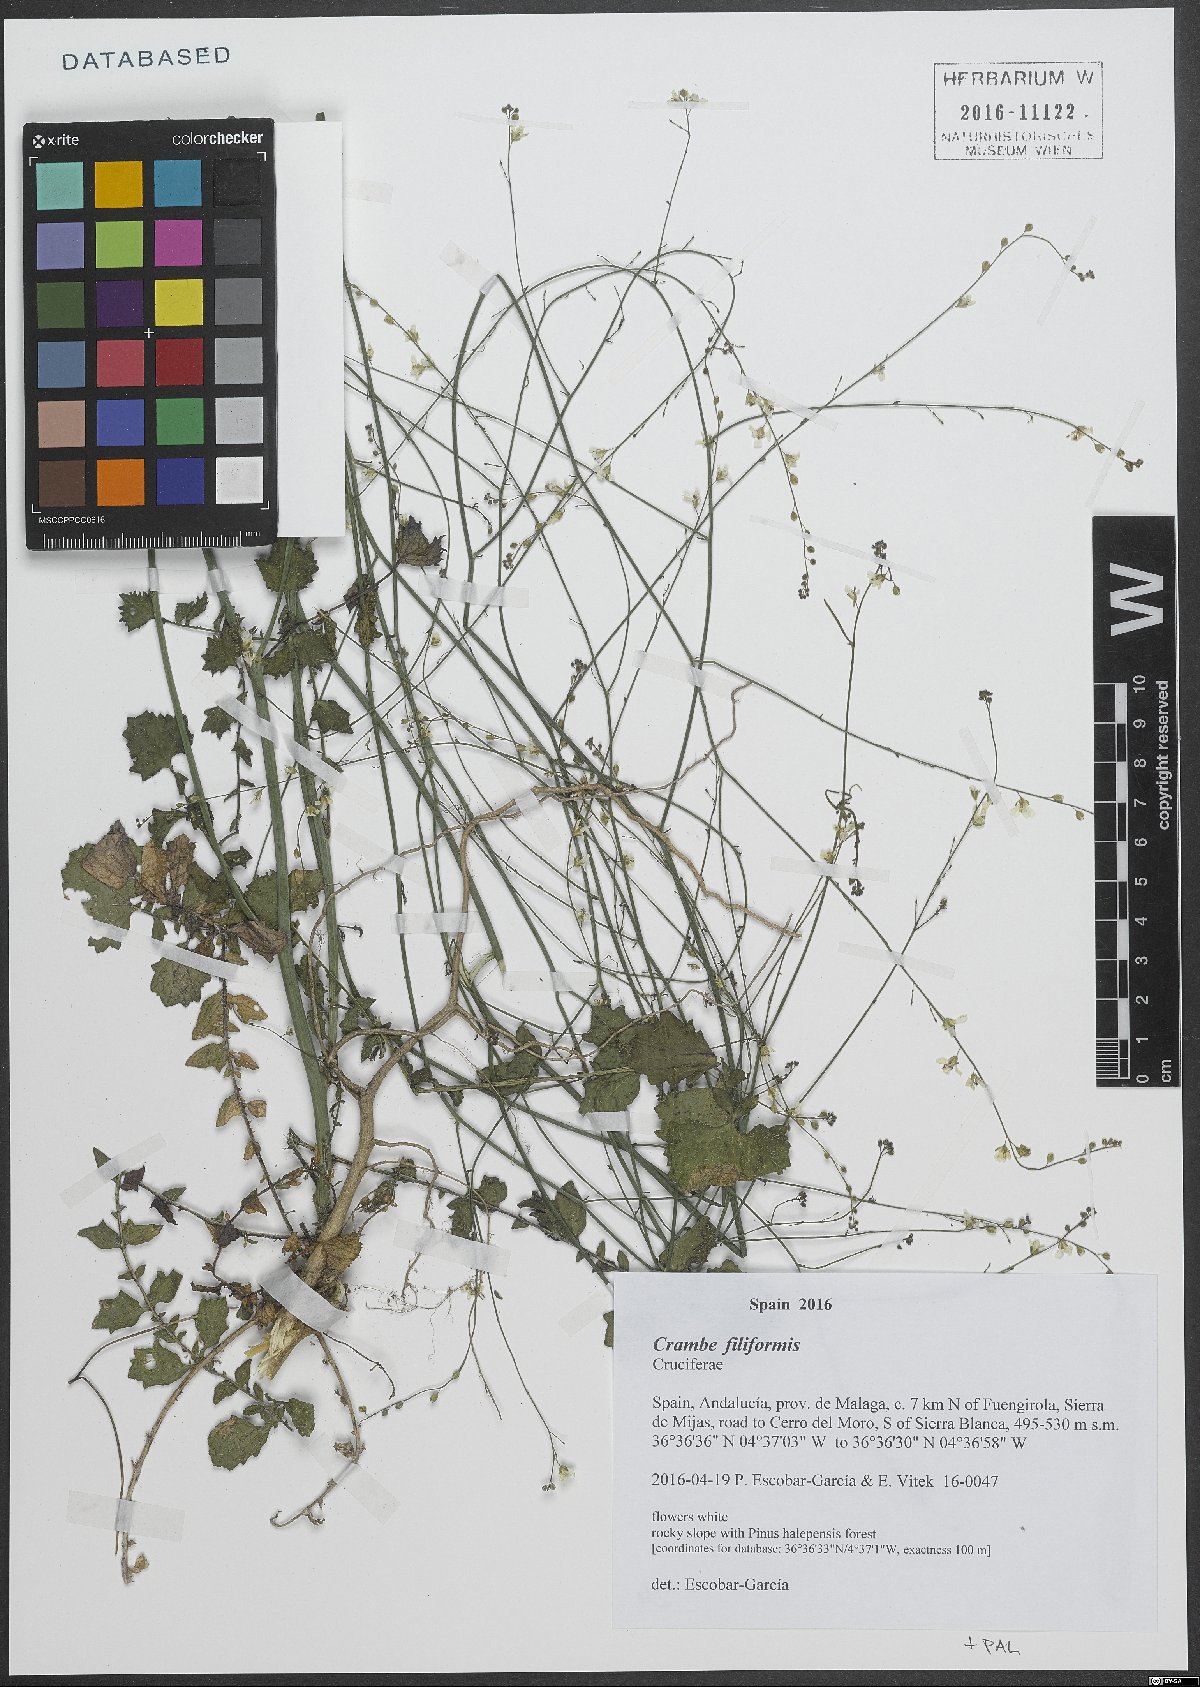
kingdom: Plantae
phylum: Tracheophyta
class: Magnoliopsida
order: Brassicales
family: Brassicaceae
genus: Crambe
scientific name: Crambe filiformis
